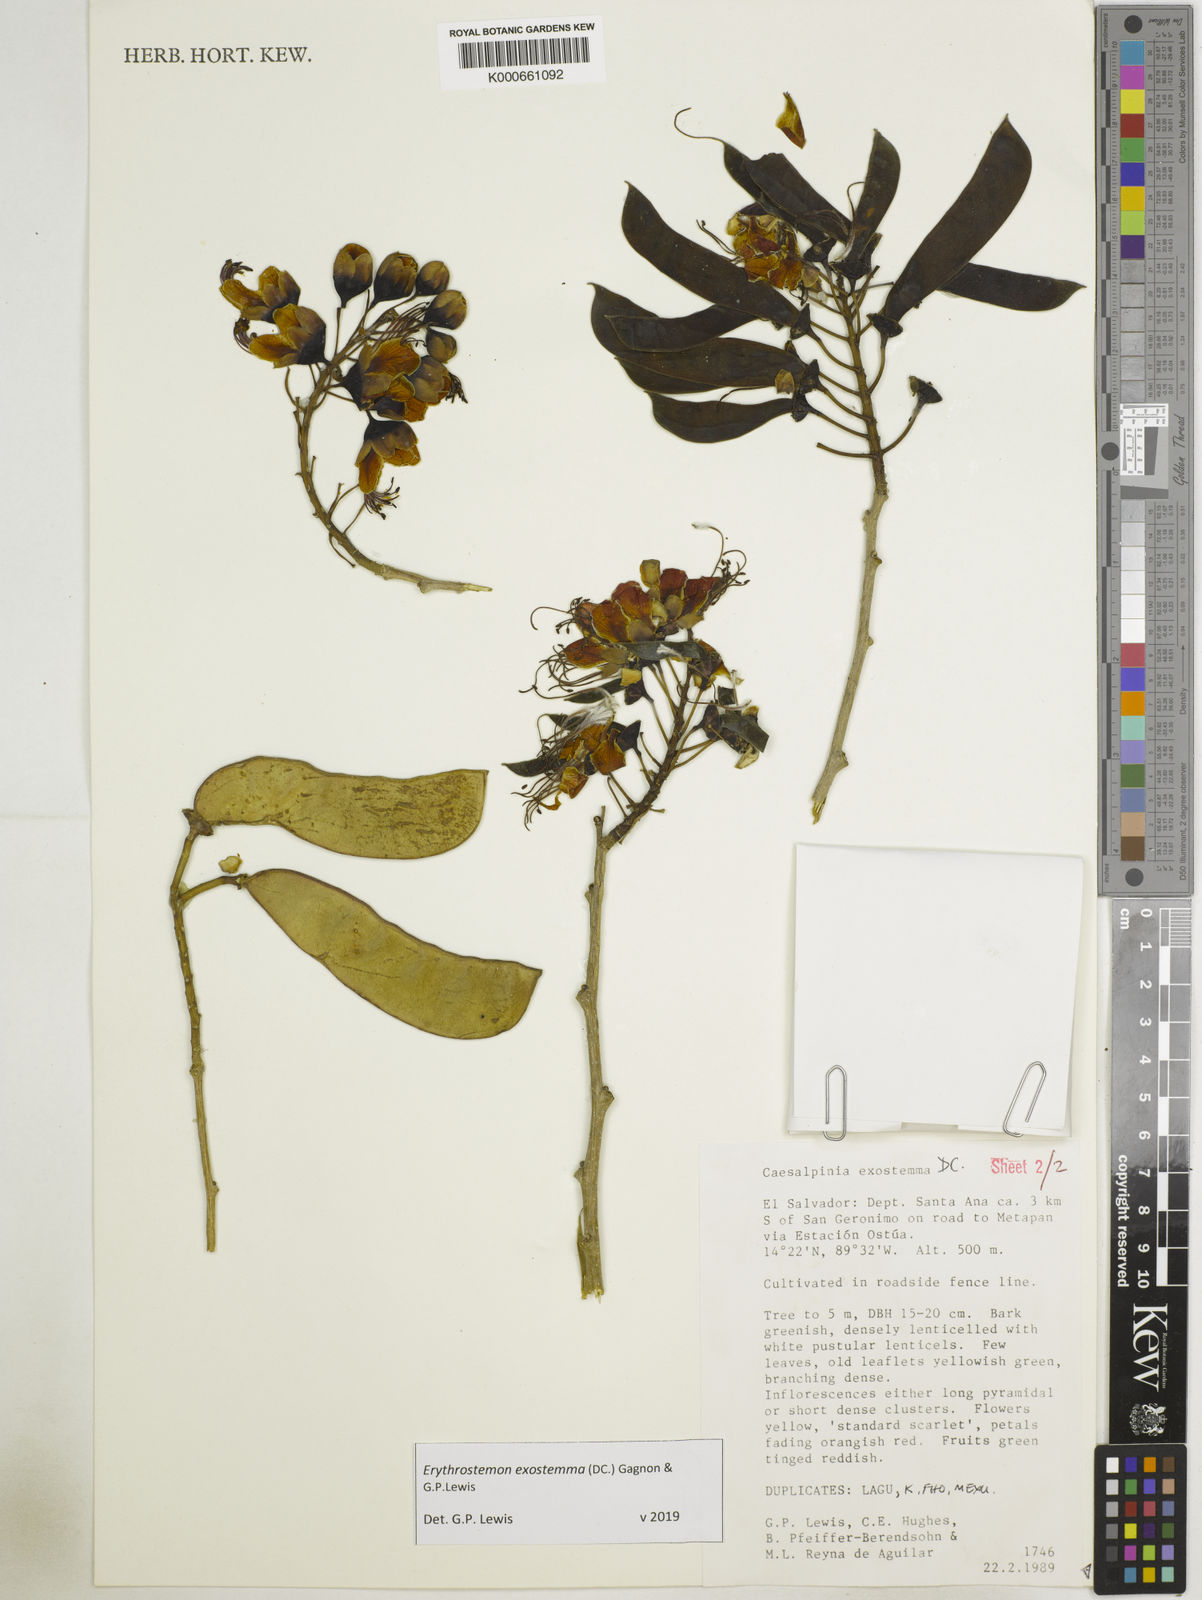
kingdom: Plantae
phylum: Tracheophyta
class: Magnoliopsida
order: Fabales
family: Fabaceae
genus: Erythrostemon
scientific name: Erythrostemon exostemma
